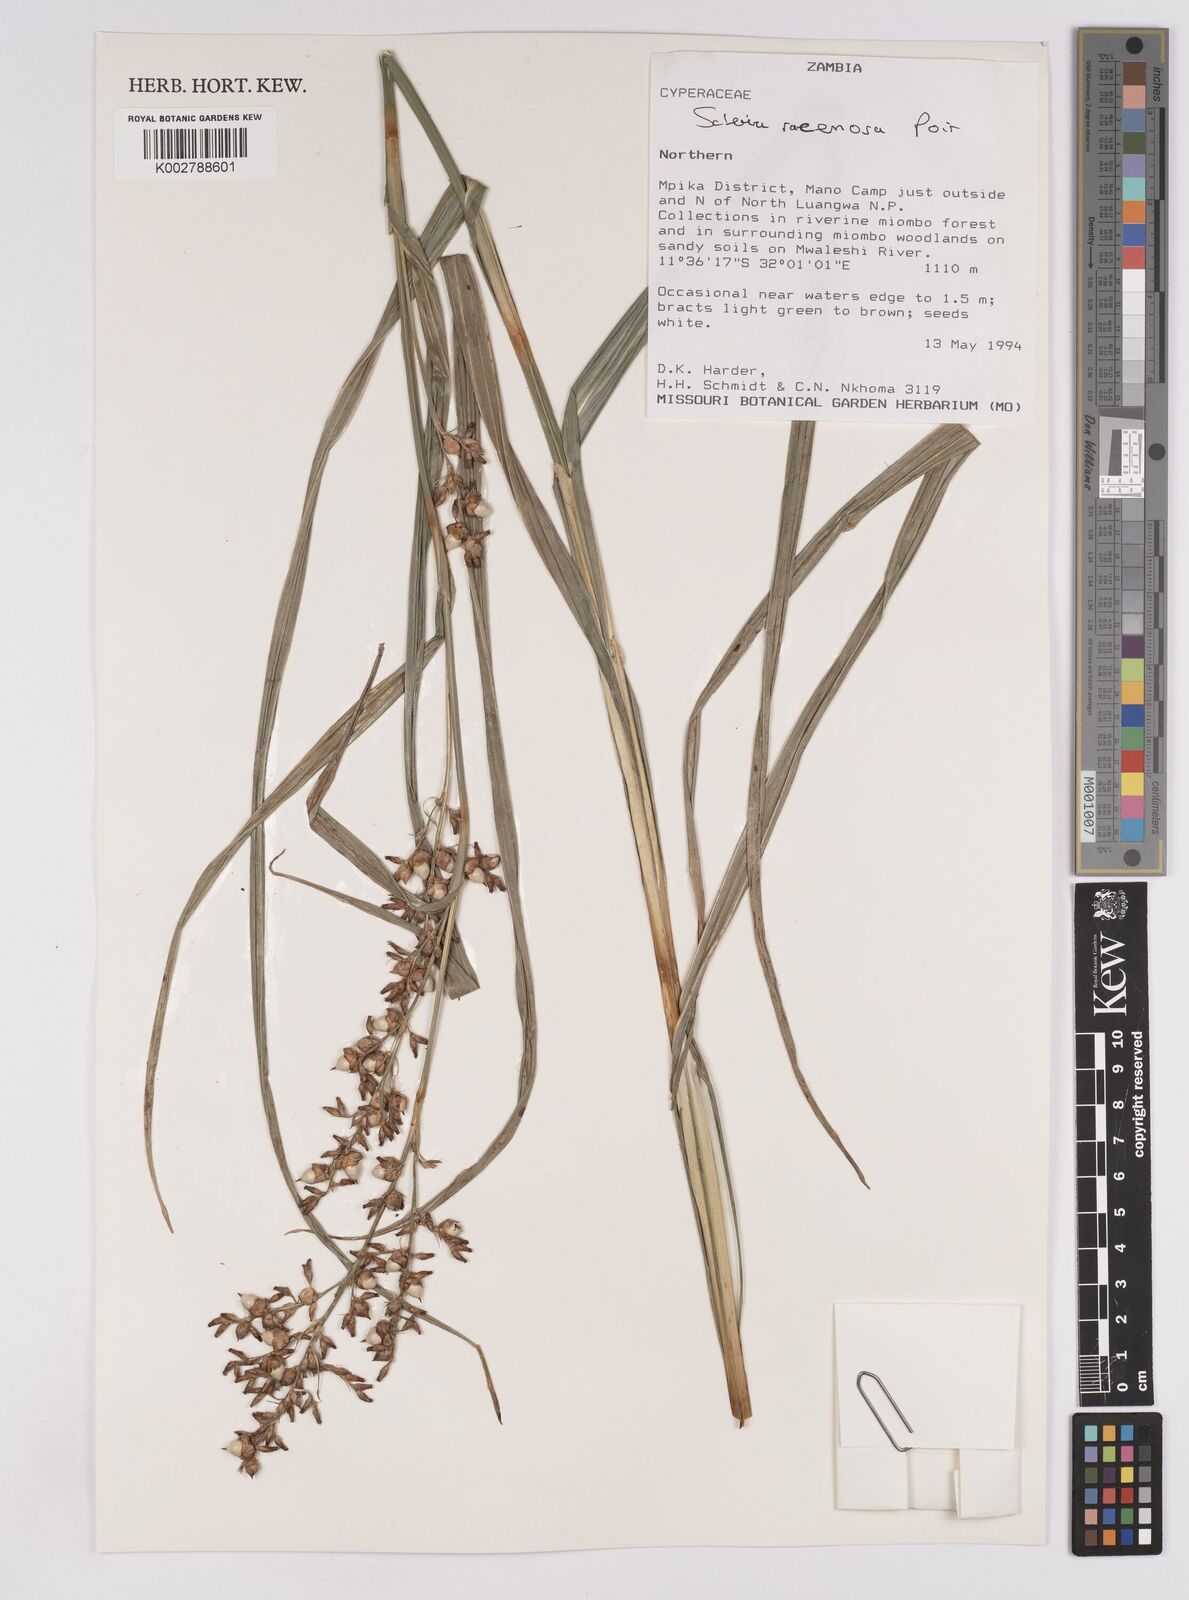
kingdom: Plantae
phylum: Tracheophyta
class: Liliopsida
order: Poales
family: Cyperaceae
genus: Scleria
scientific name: Scleria racemosa
